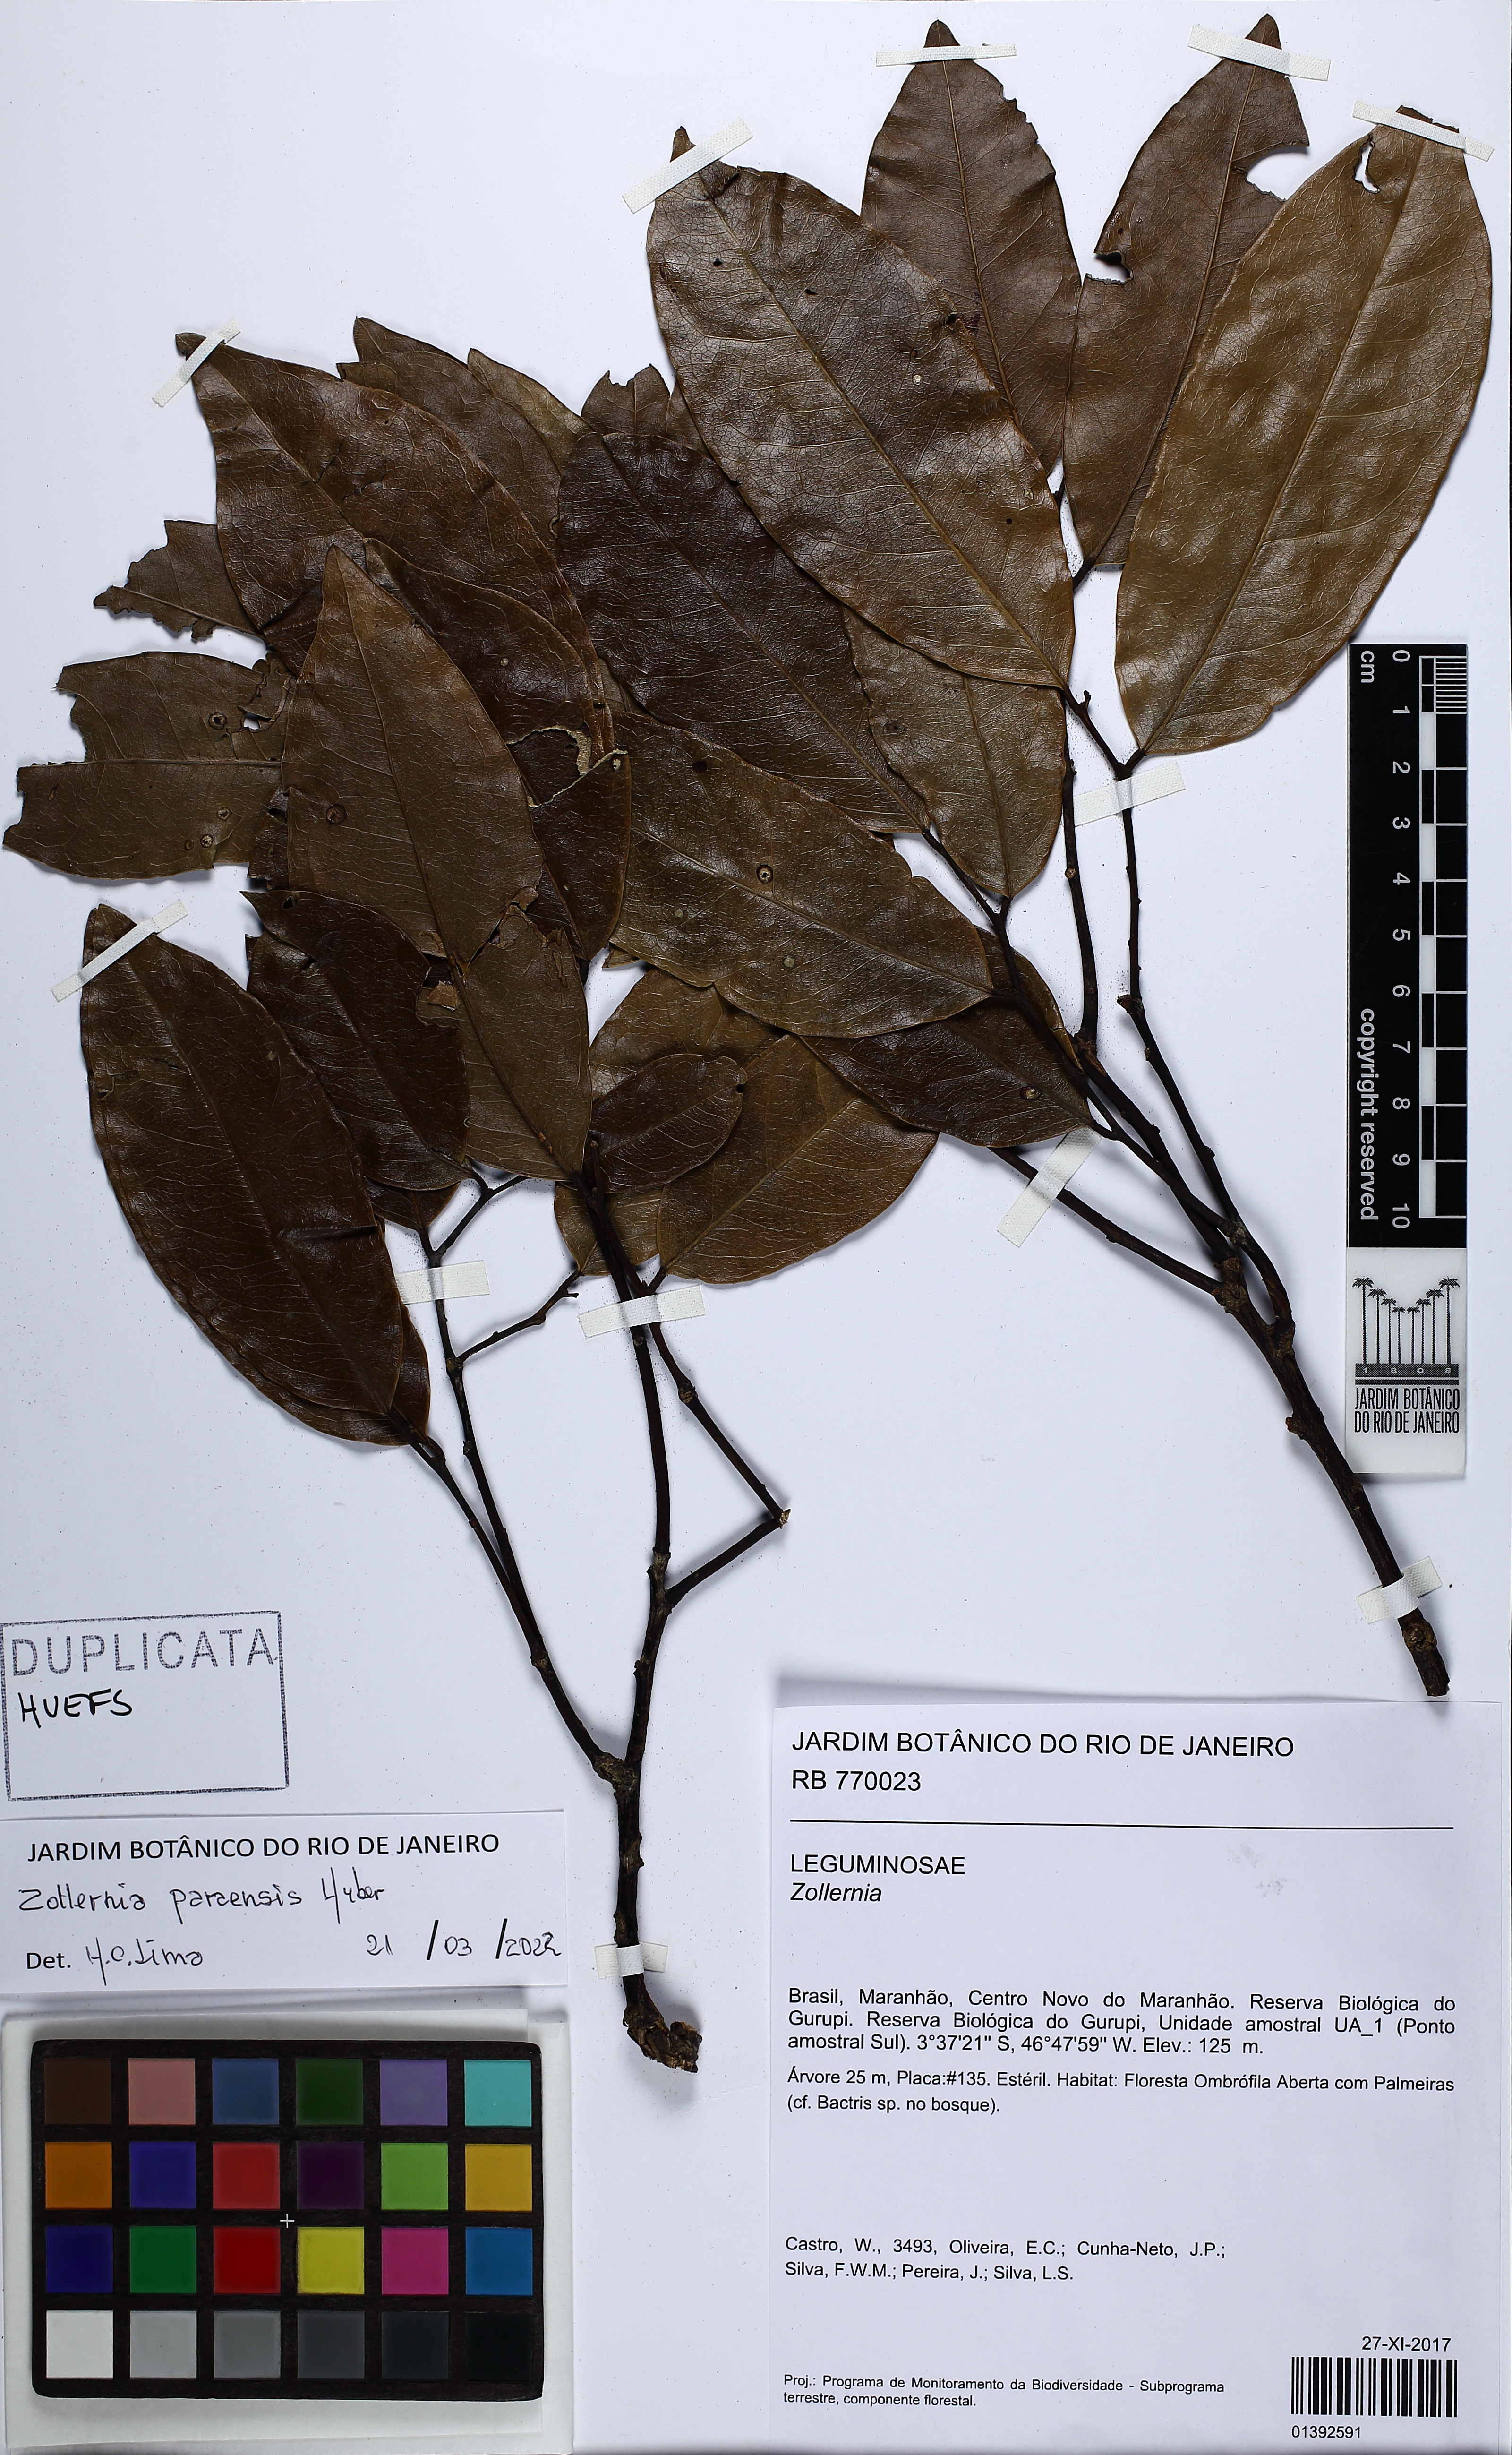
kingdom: Plantae
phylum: Tracheophyta
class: Magnoliopsida
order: Fabales
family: Fabaceae
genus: Zollernia
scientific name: Zollernia paraensis
